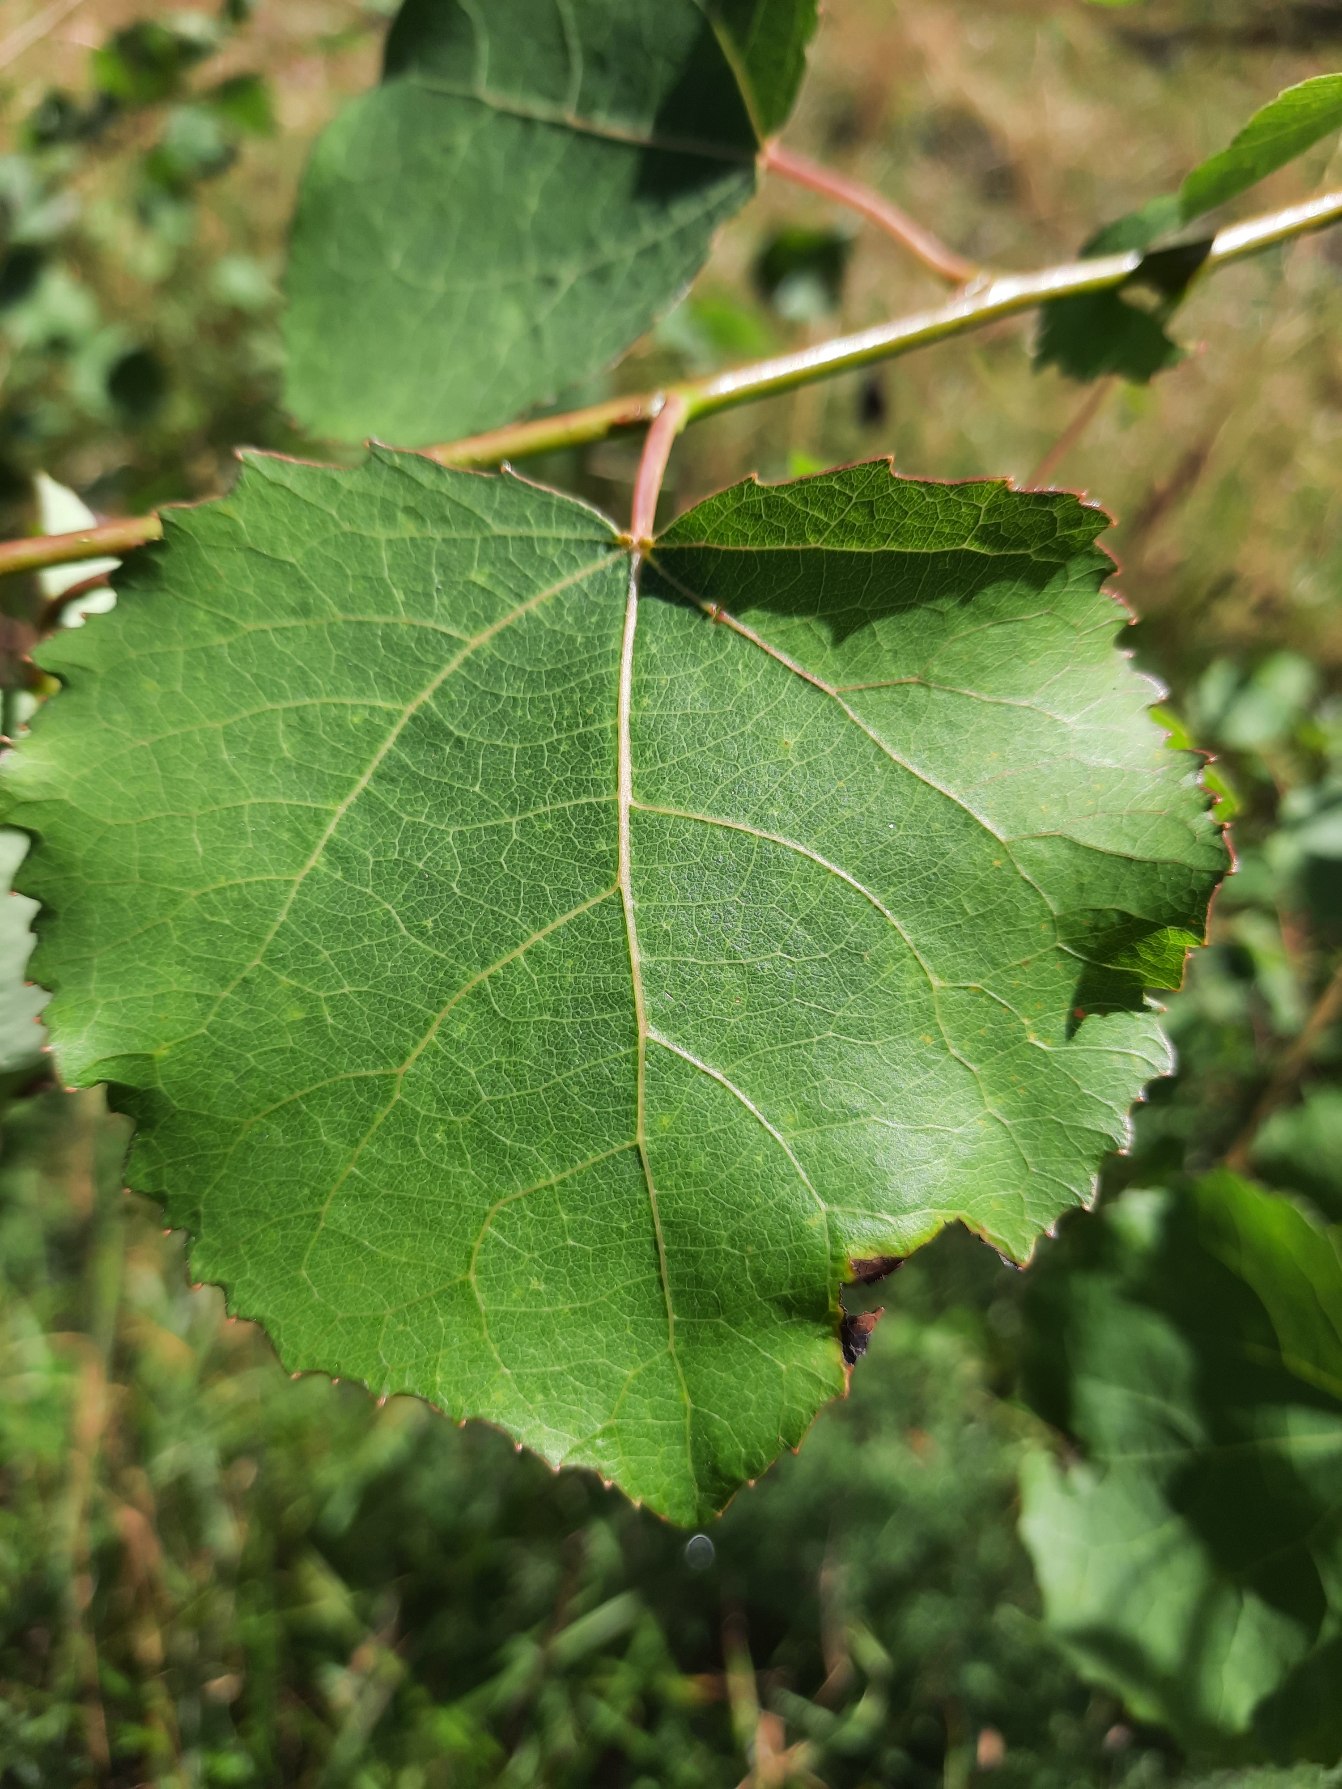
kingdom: Plantae
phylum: Tracheophyta
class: Magnoliopsida
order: Malpighiales
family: Salicaceae
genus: Populus
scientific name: Populus wettsteinii
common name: Hybridasp
